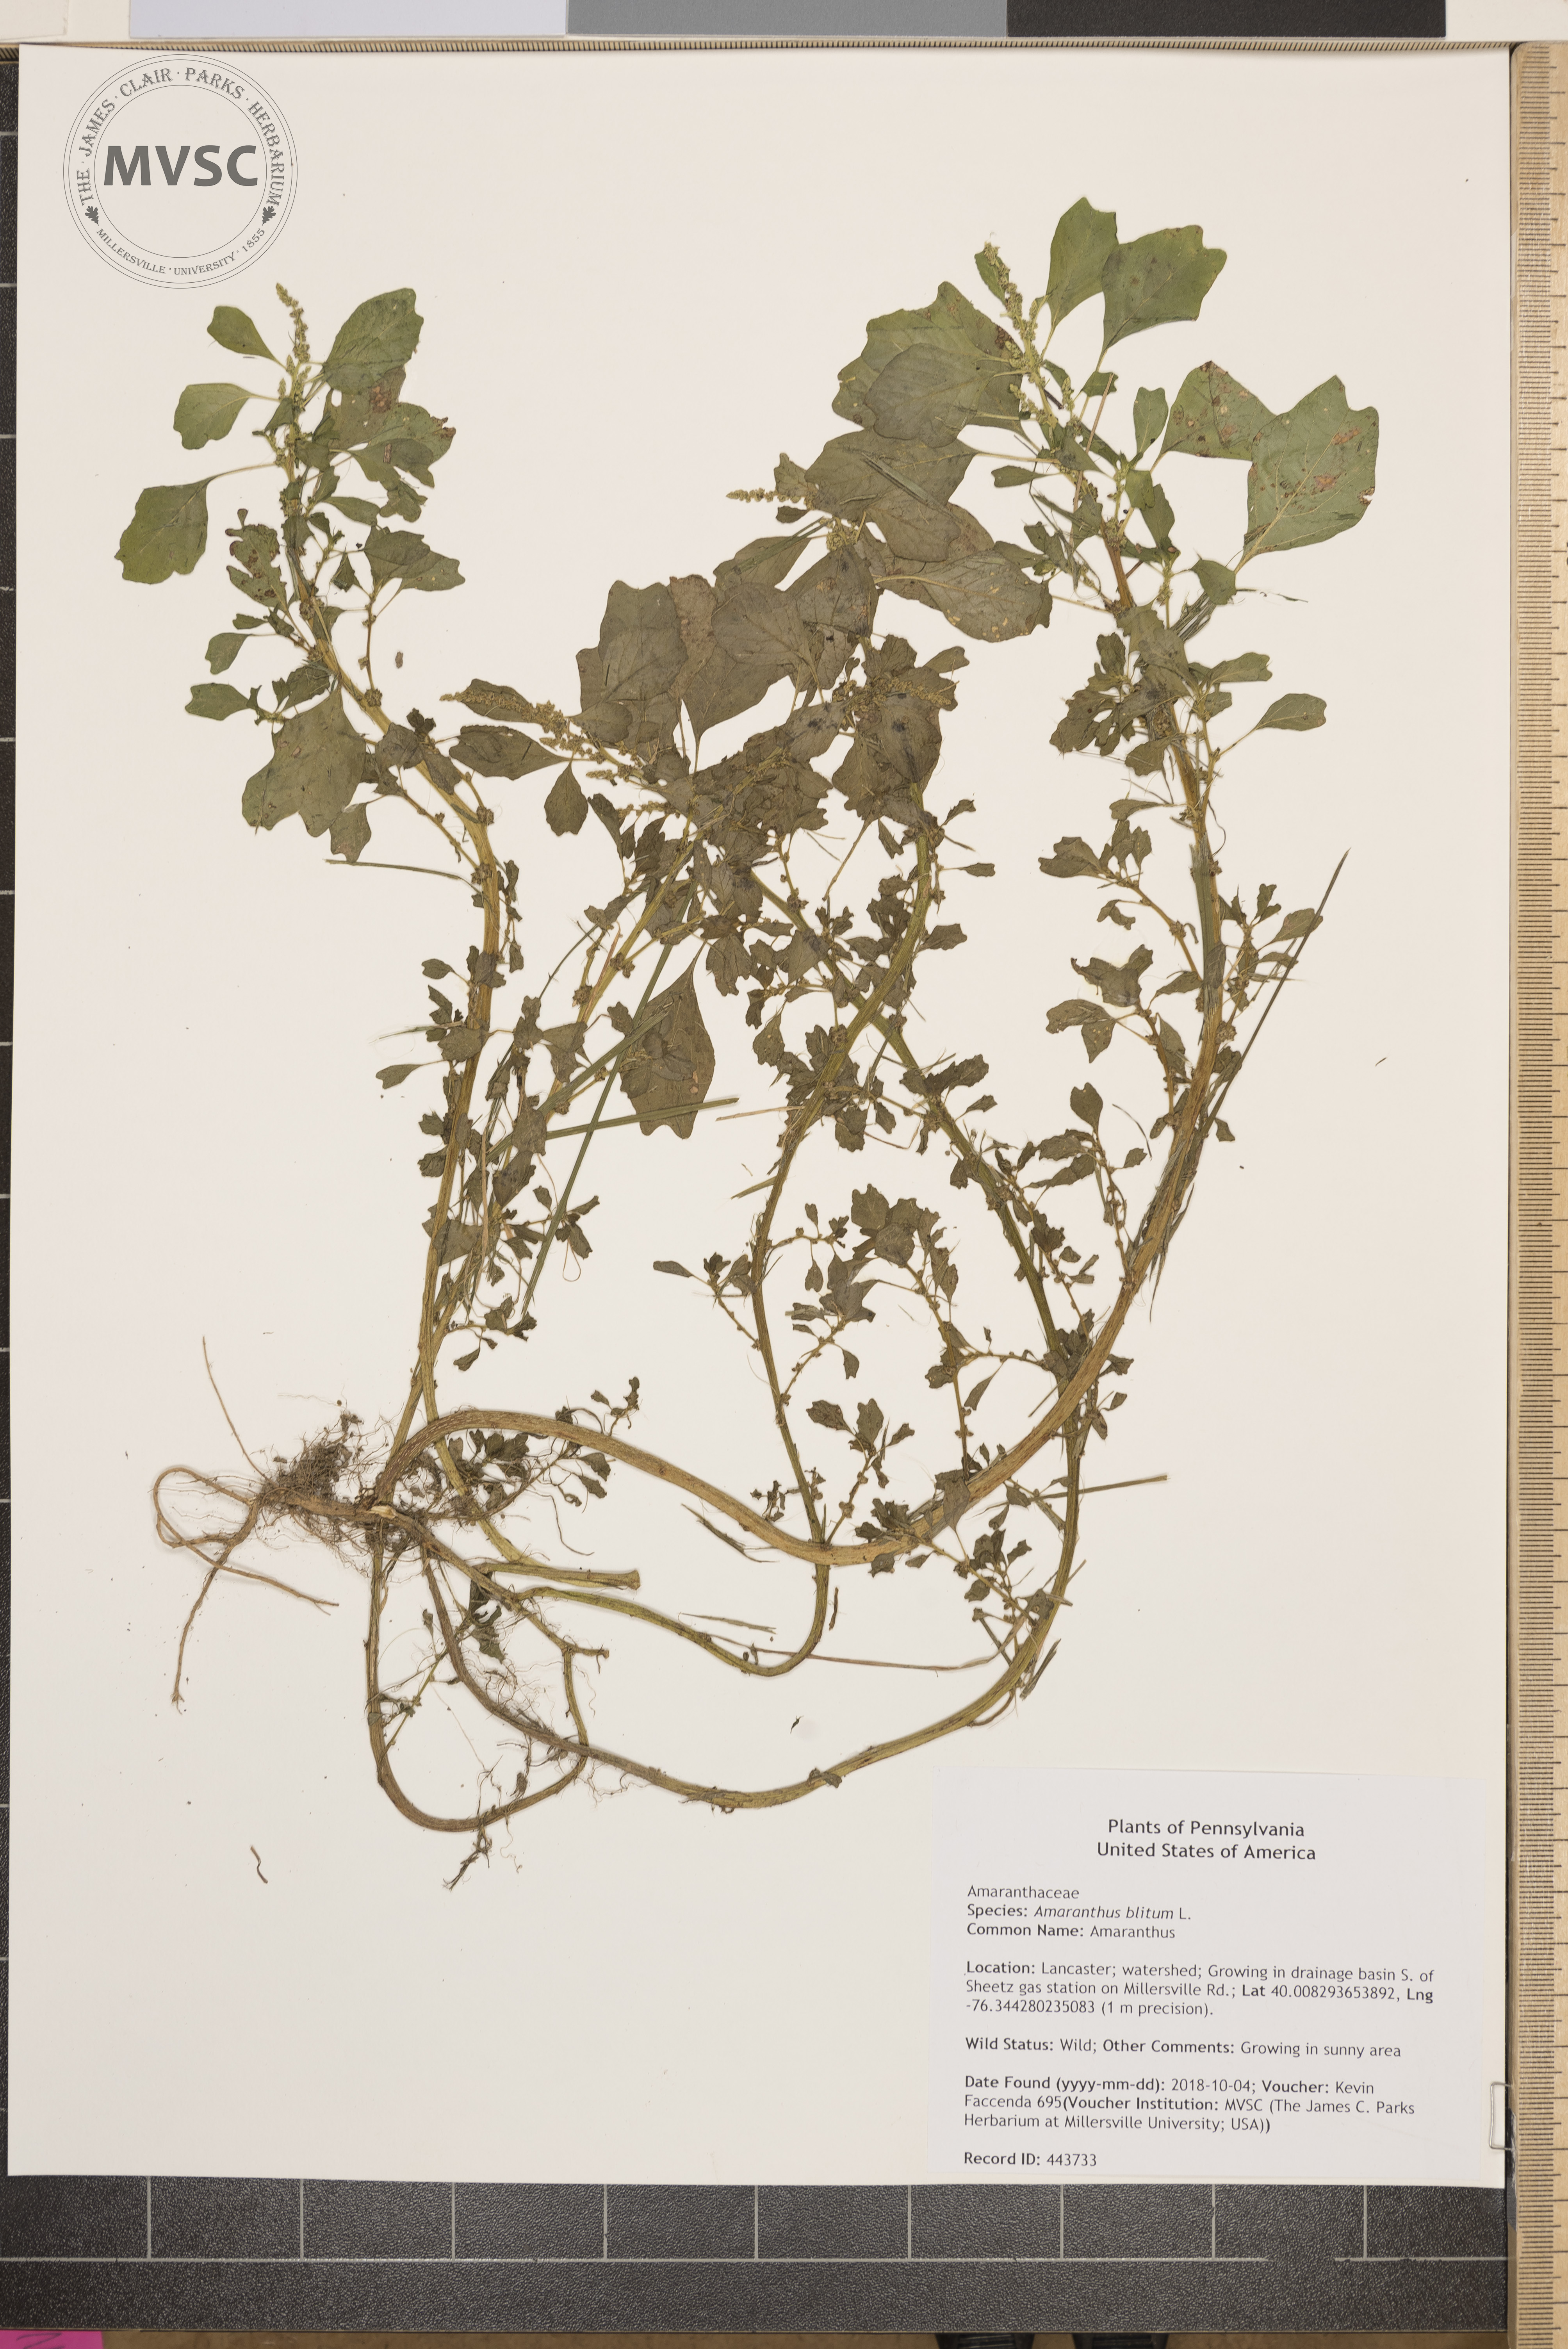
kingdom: Plantae
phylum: Tracheophyta
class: Magnoliopsida
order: Caryophyllales
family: Amaranthaceae
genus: Amaranthus
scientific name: Amaranthus blitum
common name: Amaranthus
